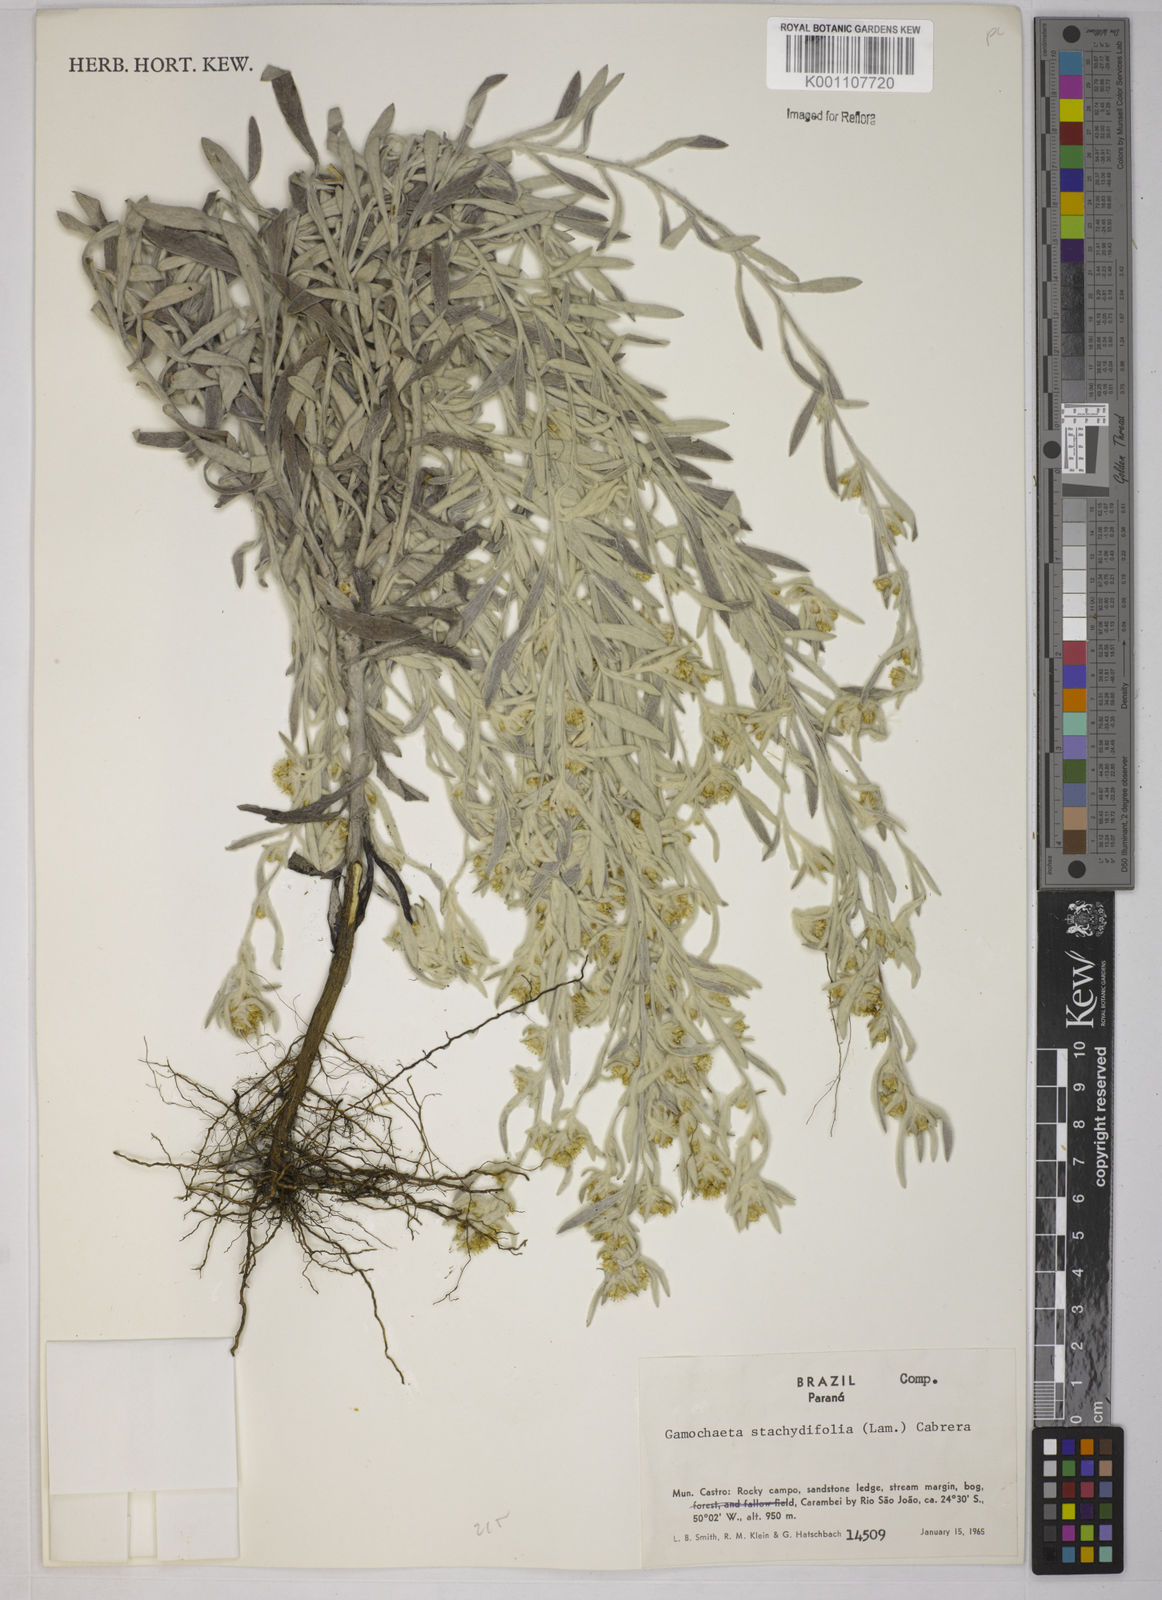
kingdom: Plantae
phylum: Tracheophyta
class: Magnoliopsida
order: Asterales
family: Asteraceae
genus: Gnaphalium
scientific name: Gnaphalium
